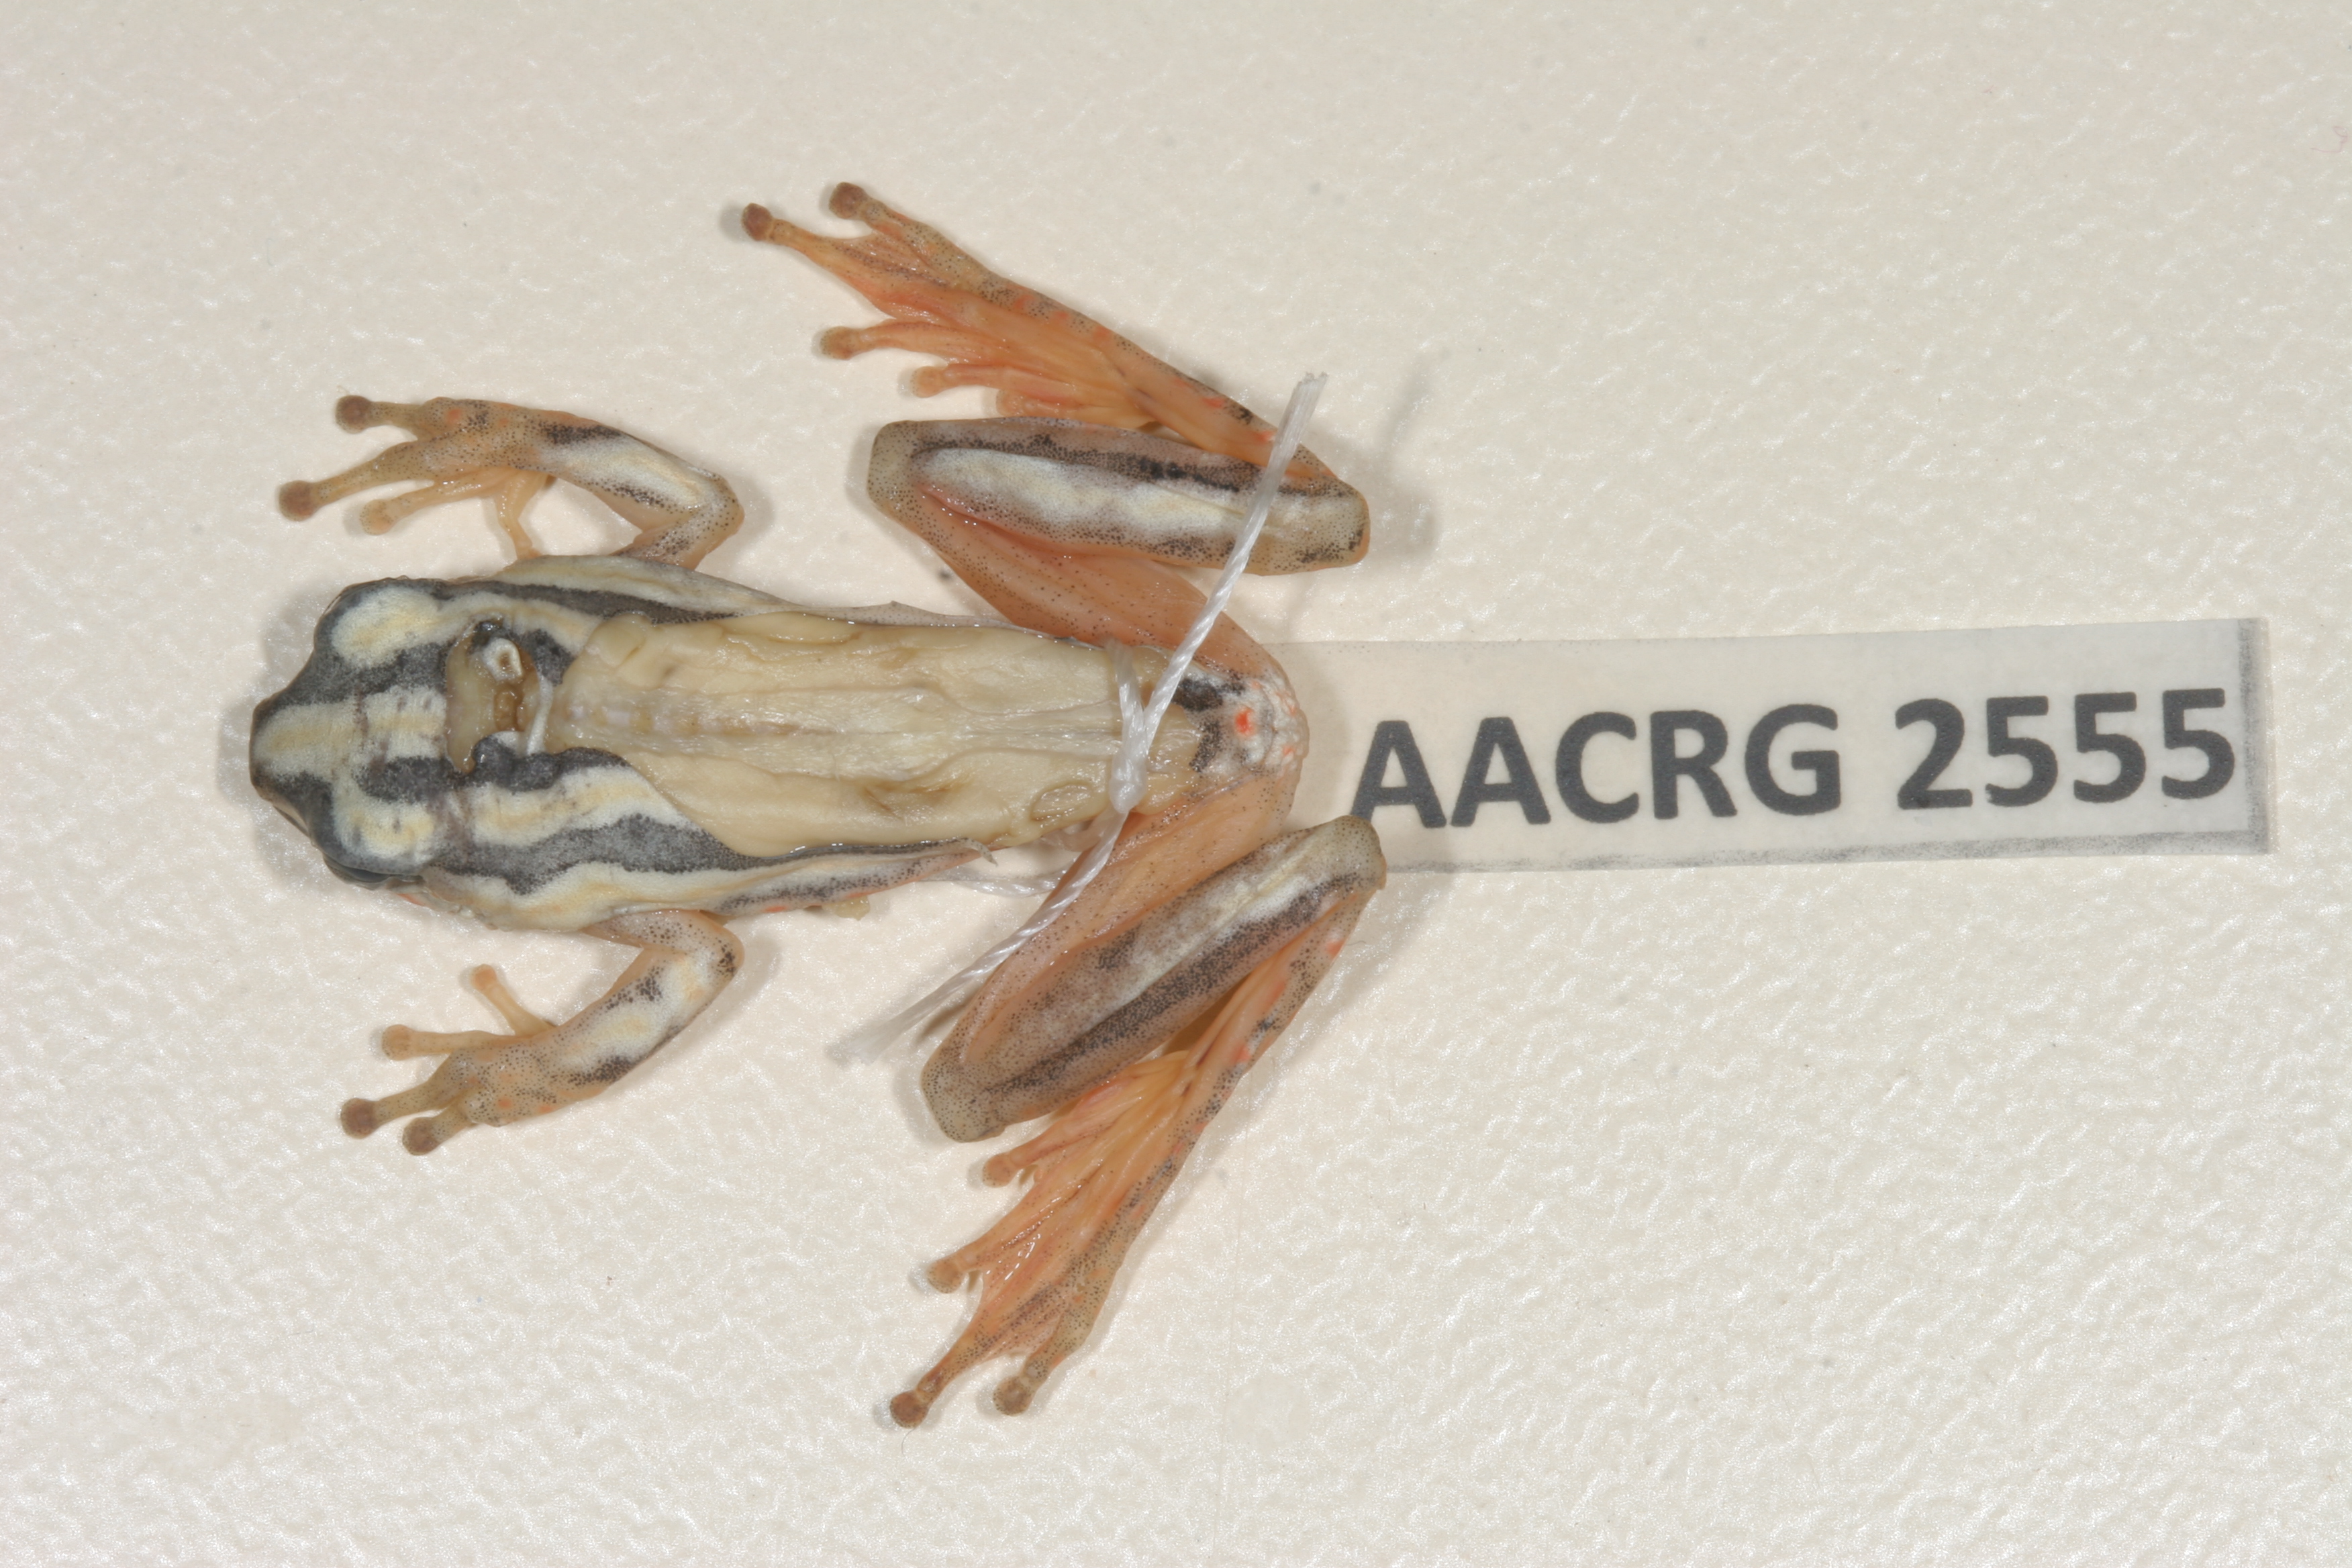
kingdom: Animalia
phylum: Chordata
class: Amphibia
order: Anura
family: Hyperoliidae
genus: Hyperolius
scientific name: Hyperolius marmoratus
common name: Painted reed frog
